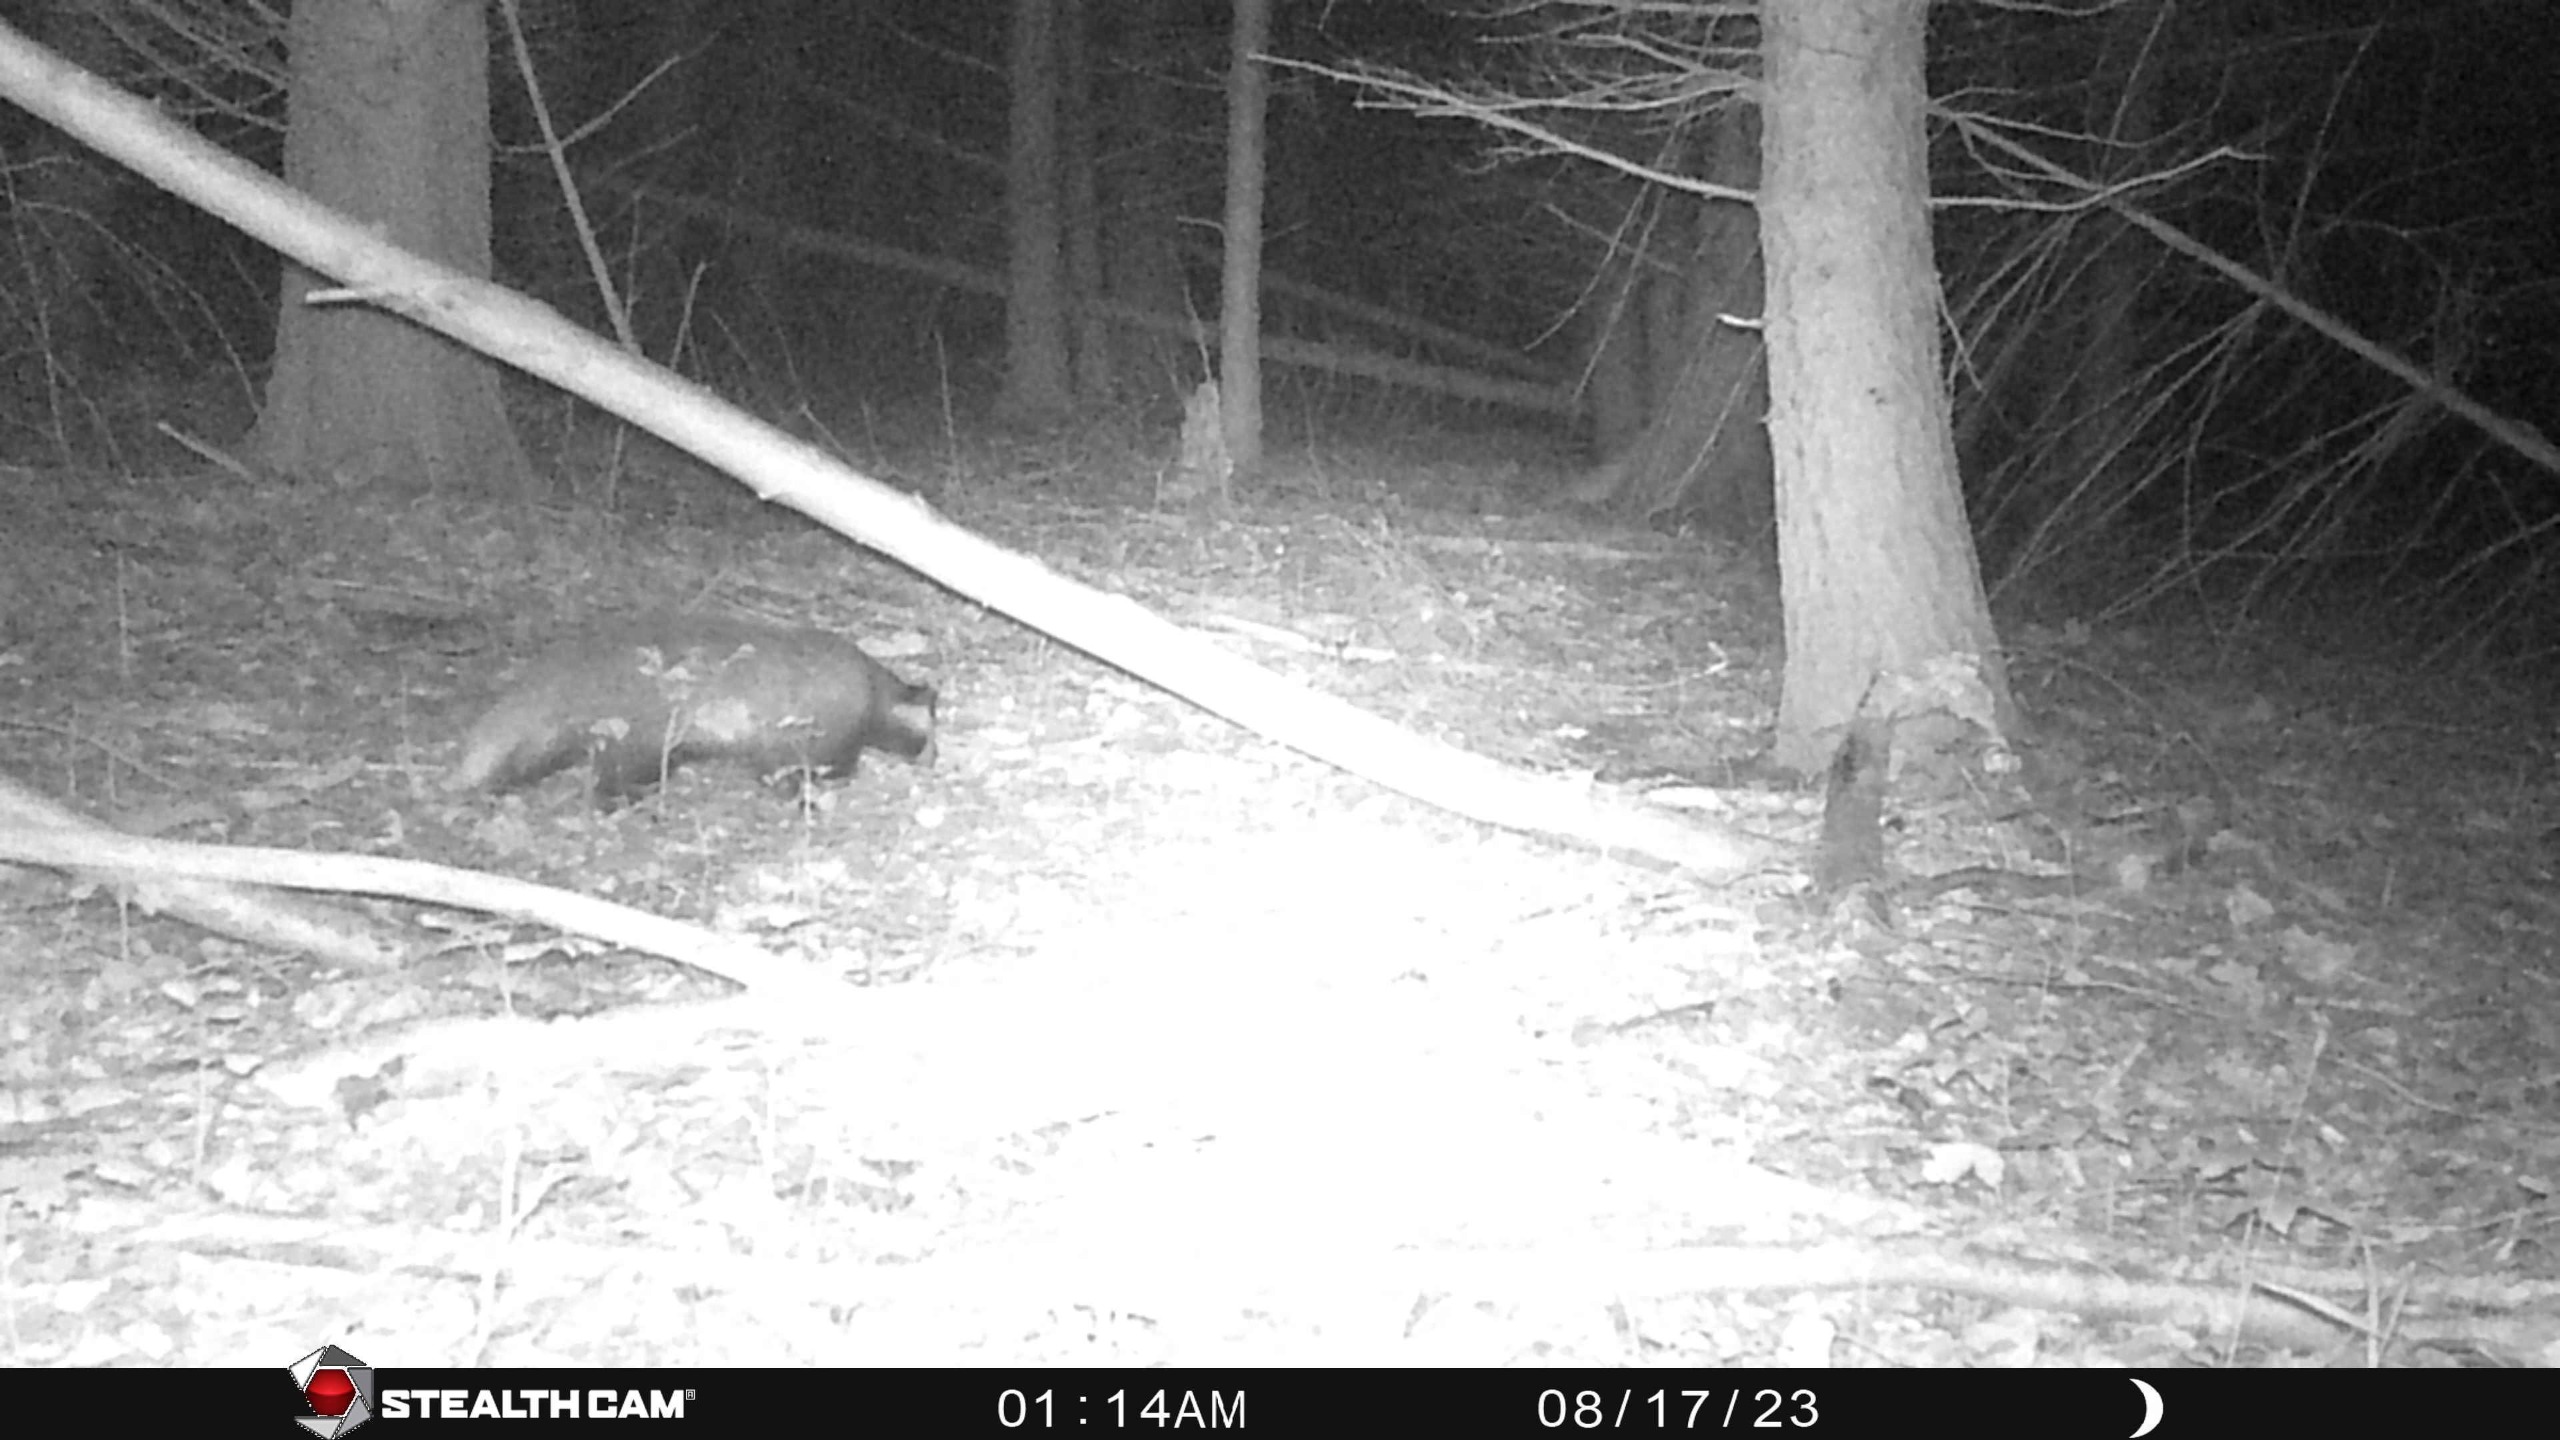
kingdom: Animalia
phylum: Chordata
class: Mammalia
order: Carnivora
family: Mustelidae
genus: Meles
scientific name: Meles meles
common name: Grævling
